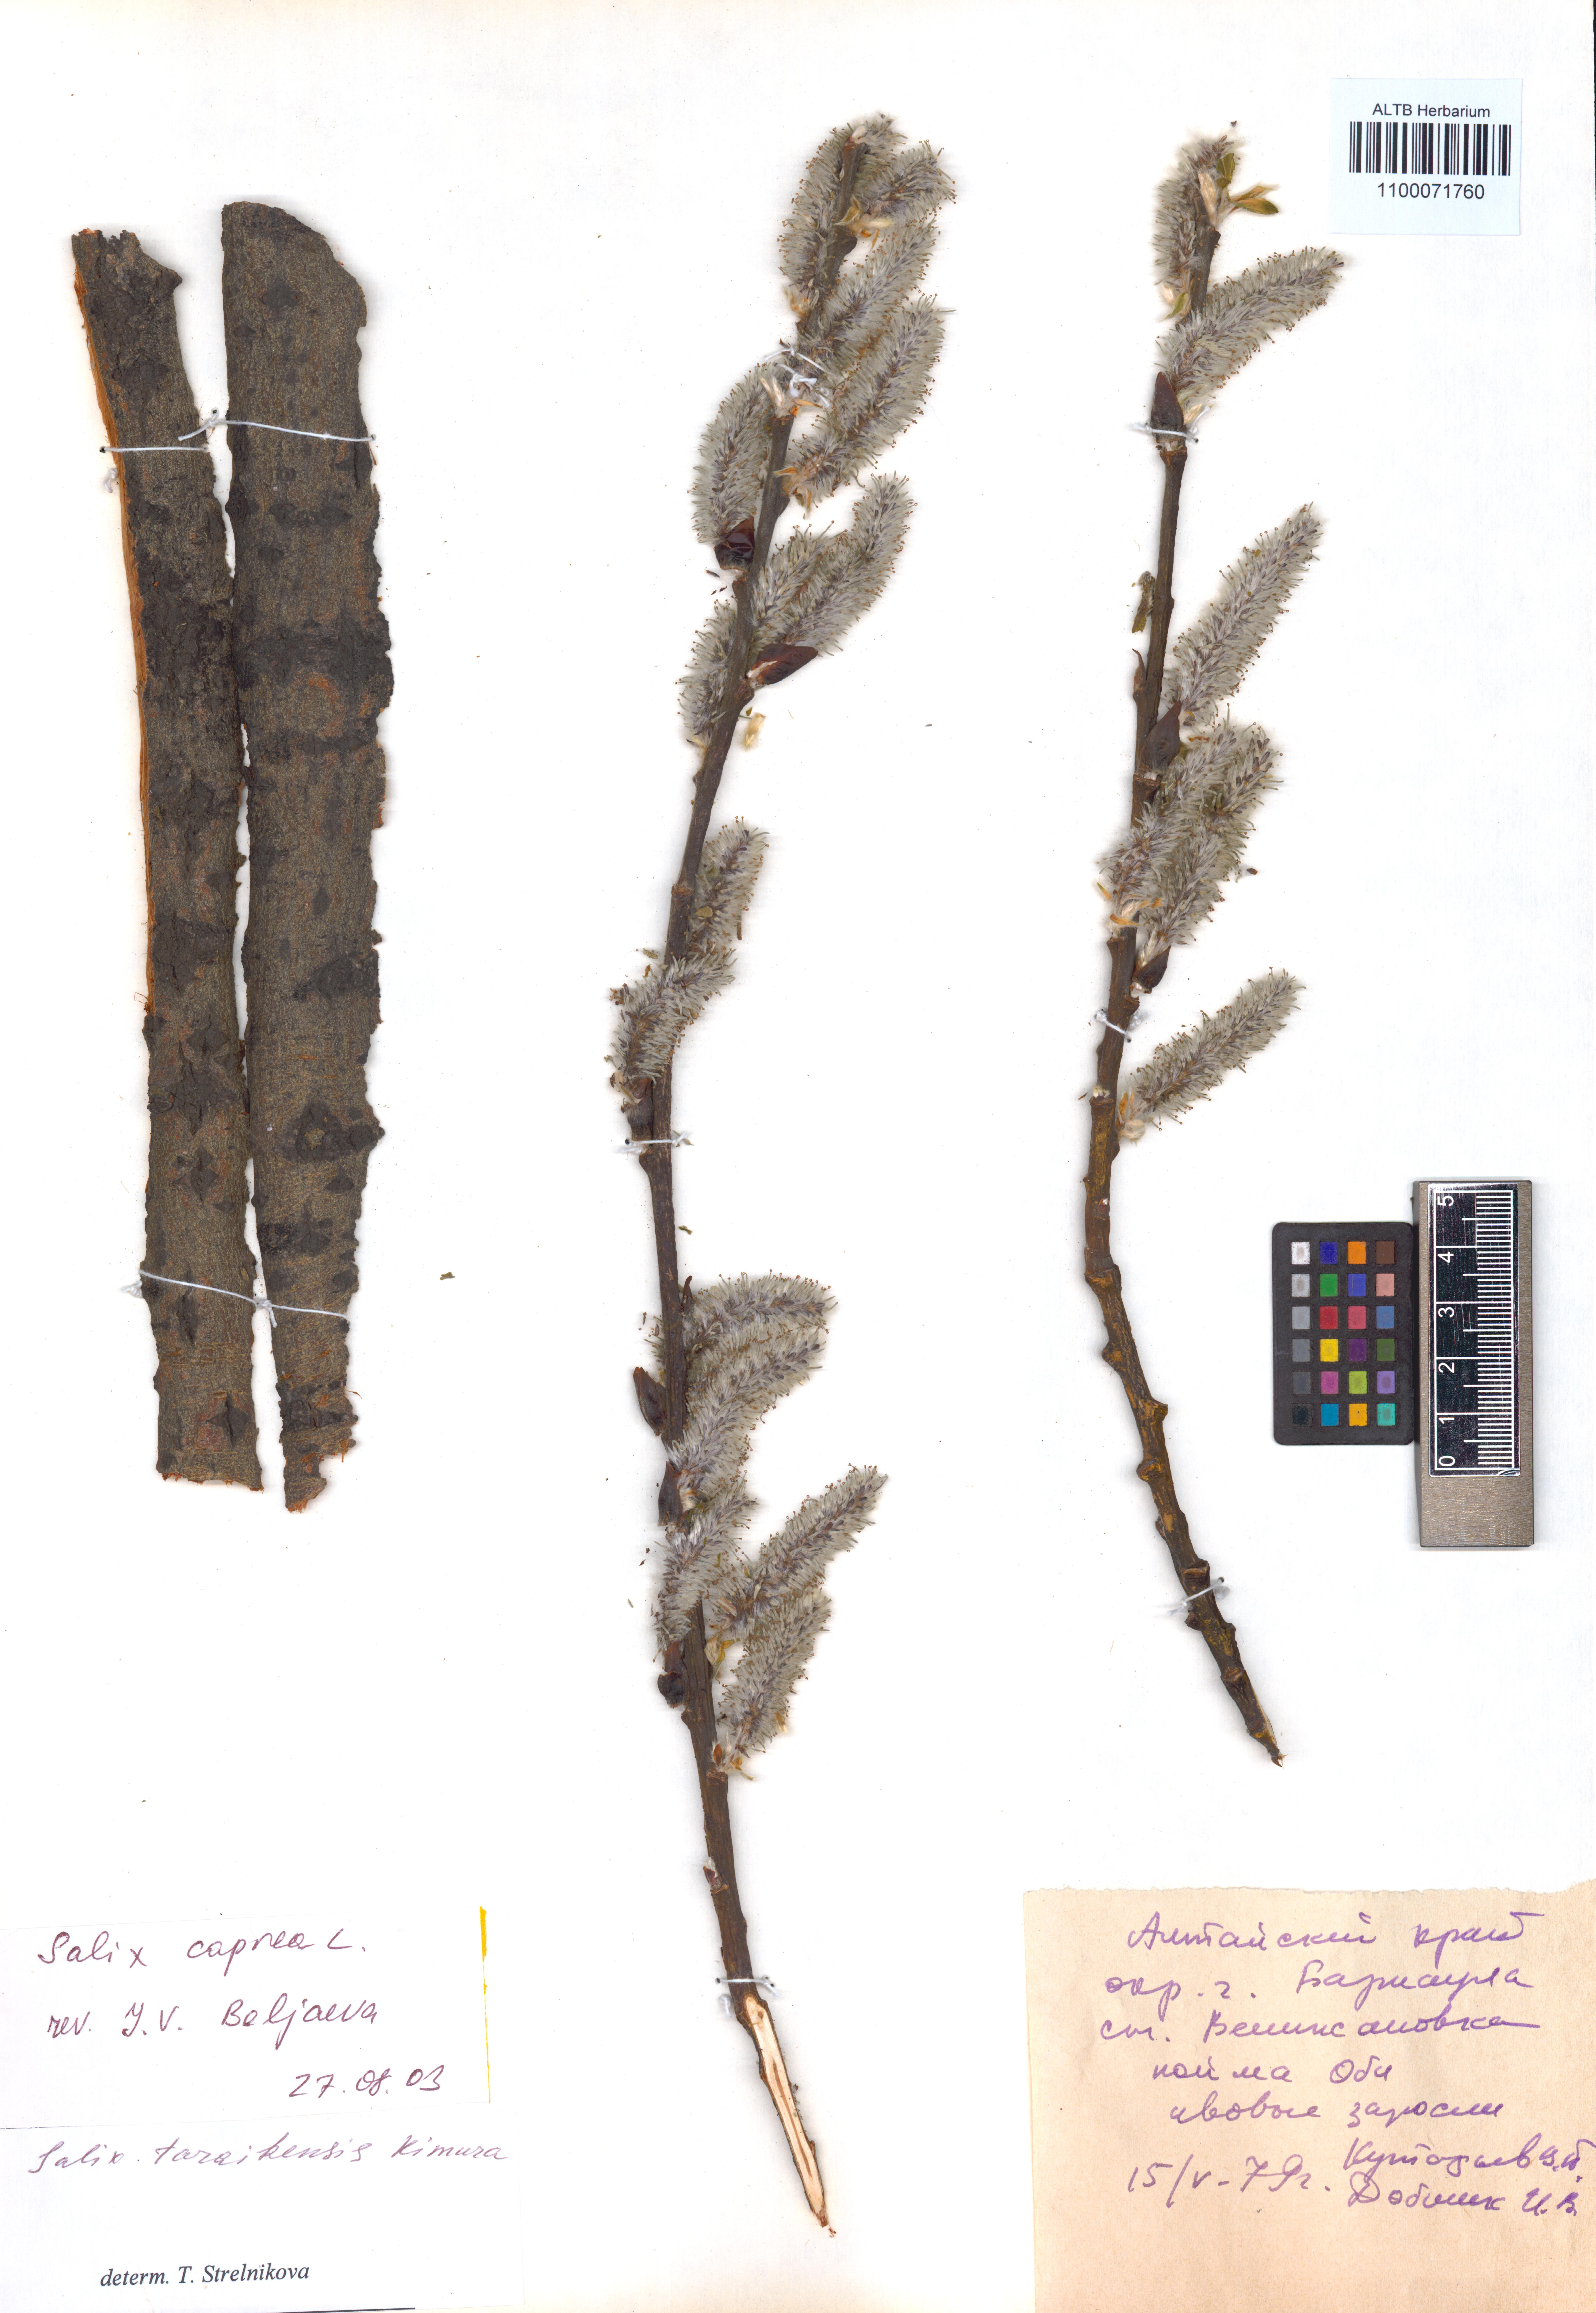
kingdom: Plantae
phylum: Tracheophyta
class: Magnoliopsida
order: Malpighiales
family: Salicaceae
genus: Salix
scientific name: Salix caprea
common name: Goat willow
